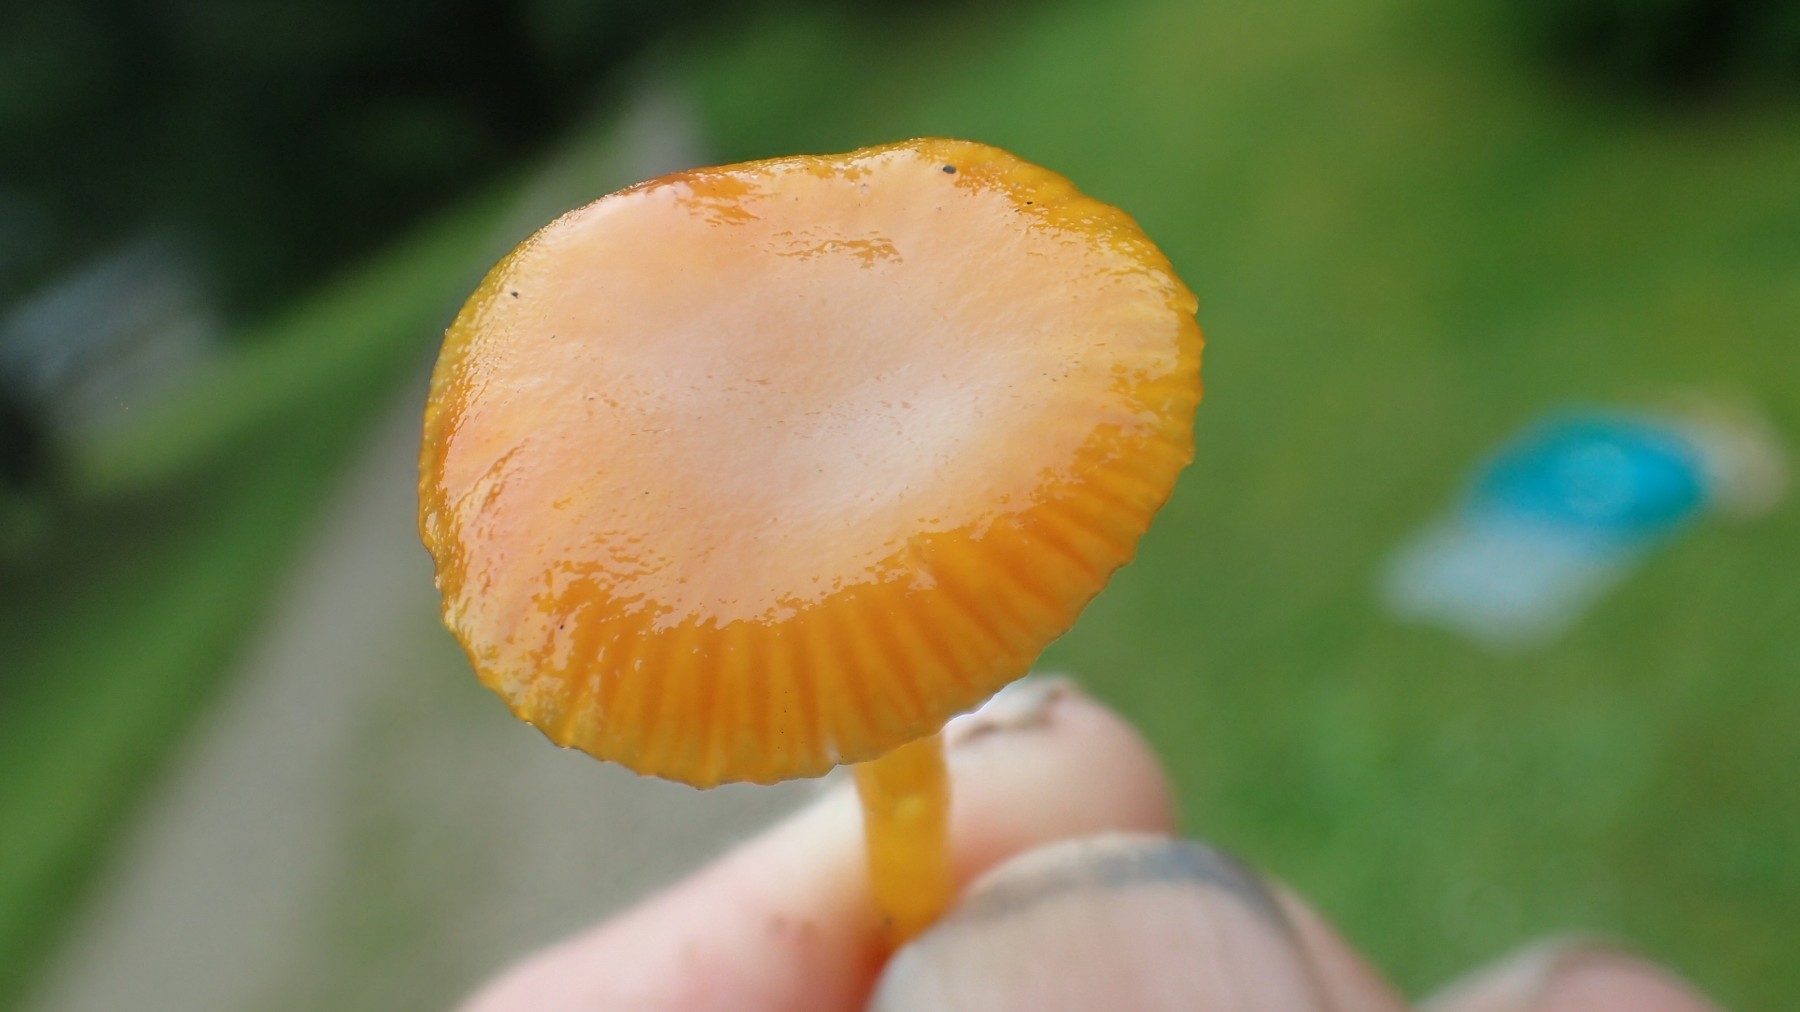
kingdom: Fungi
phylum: Basidiomycota
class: Agaricomycetes
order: Agaricales
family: Hygrophoraceae
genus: Hygrocybe
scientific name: Hygrocybe insipida
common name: liden vokshat
